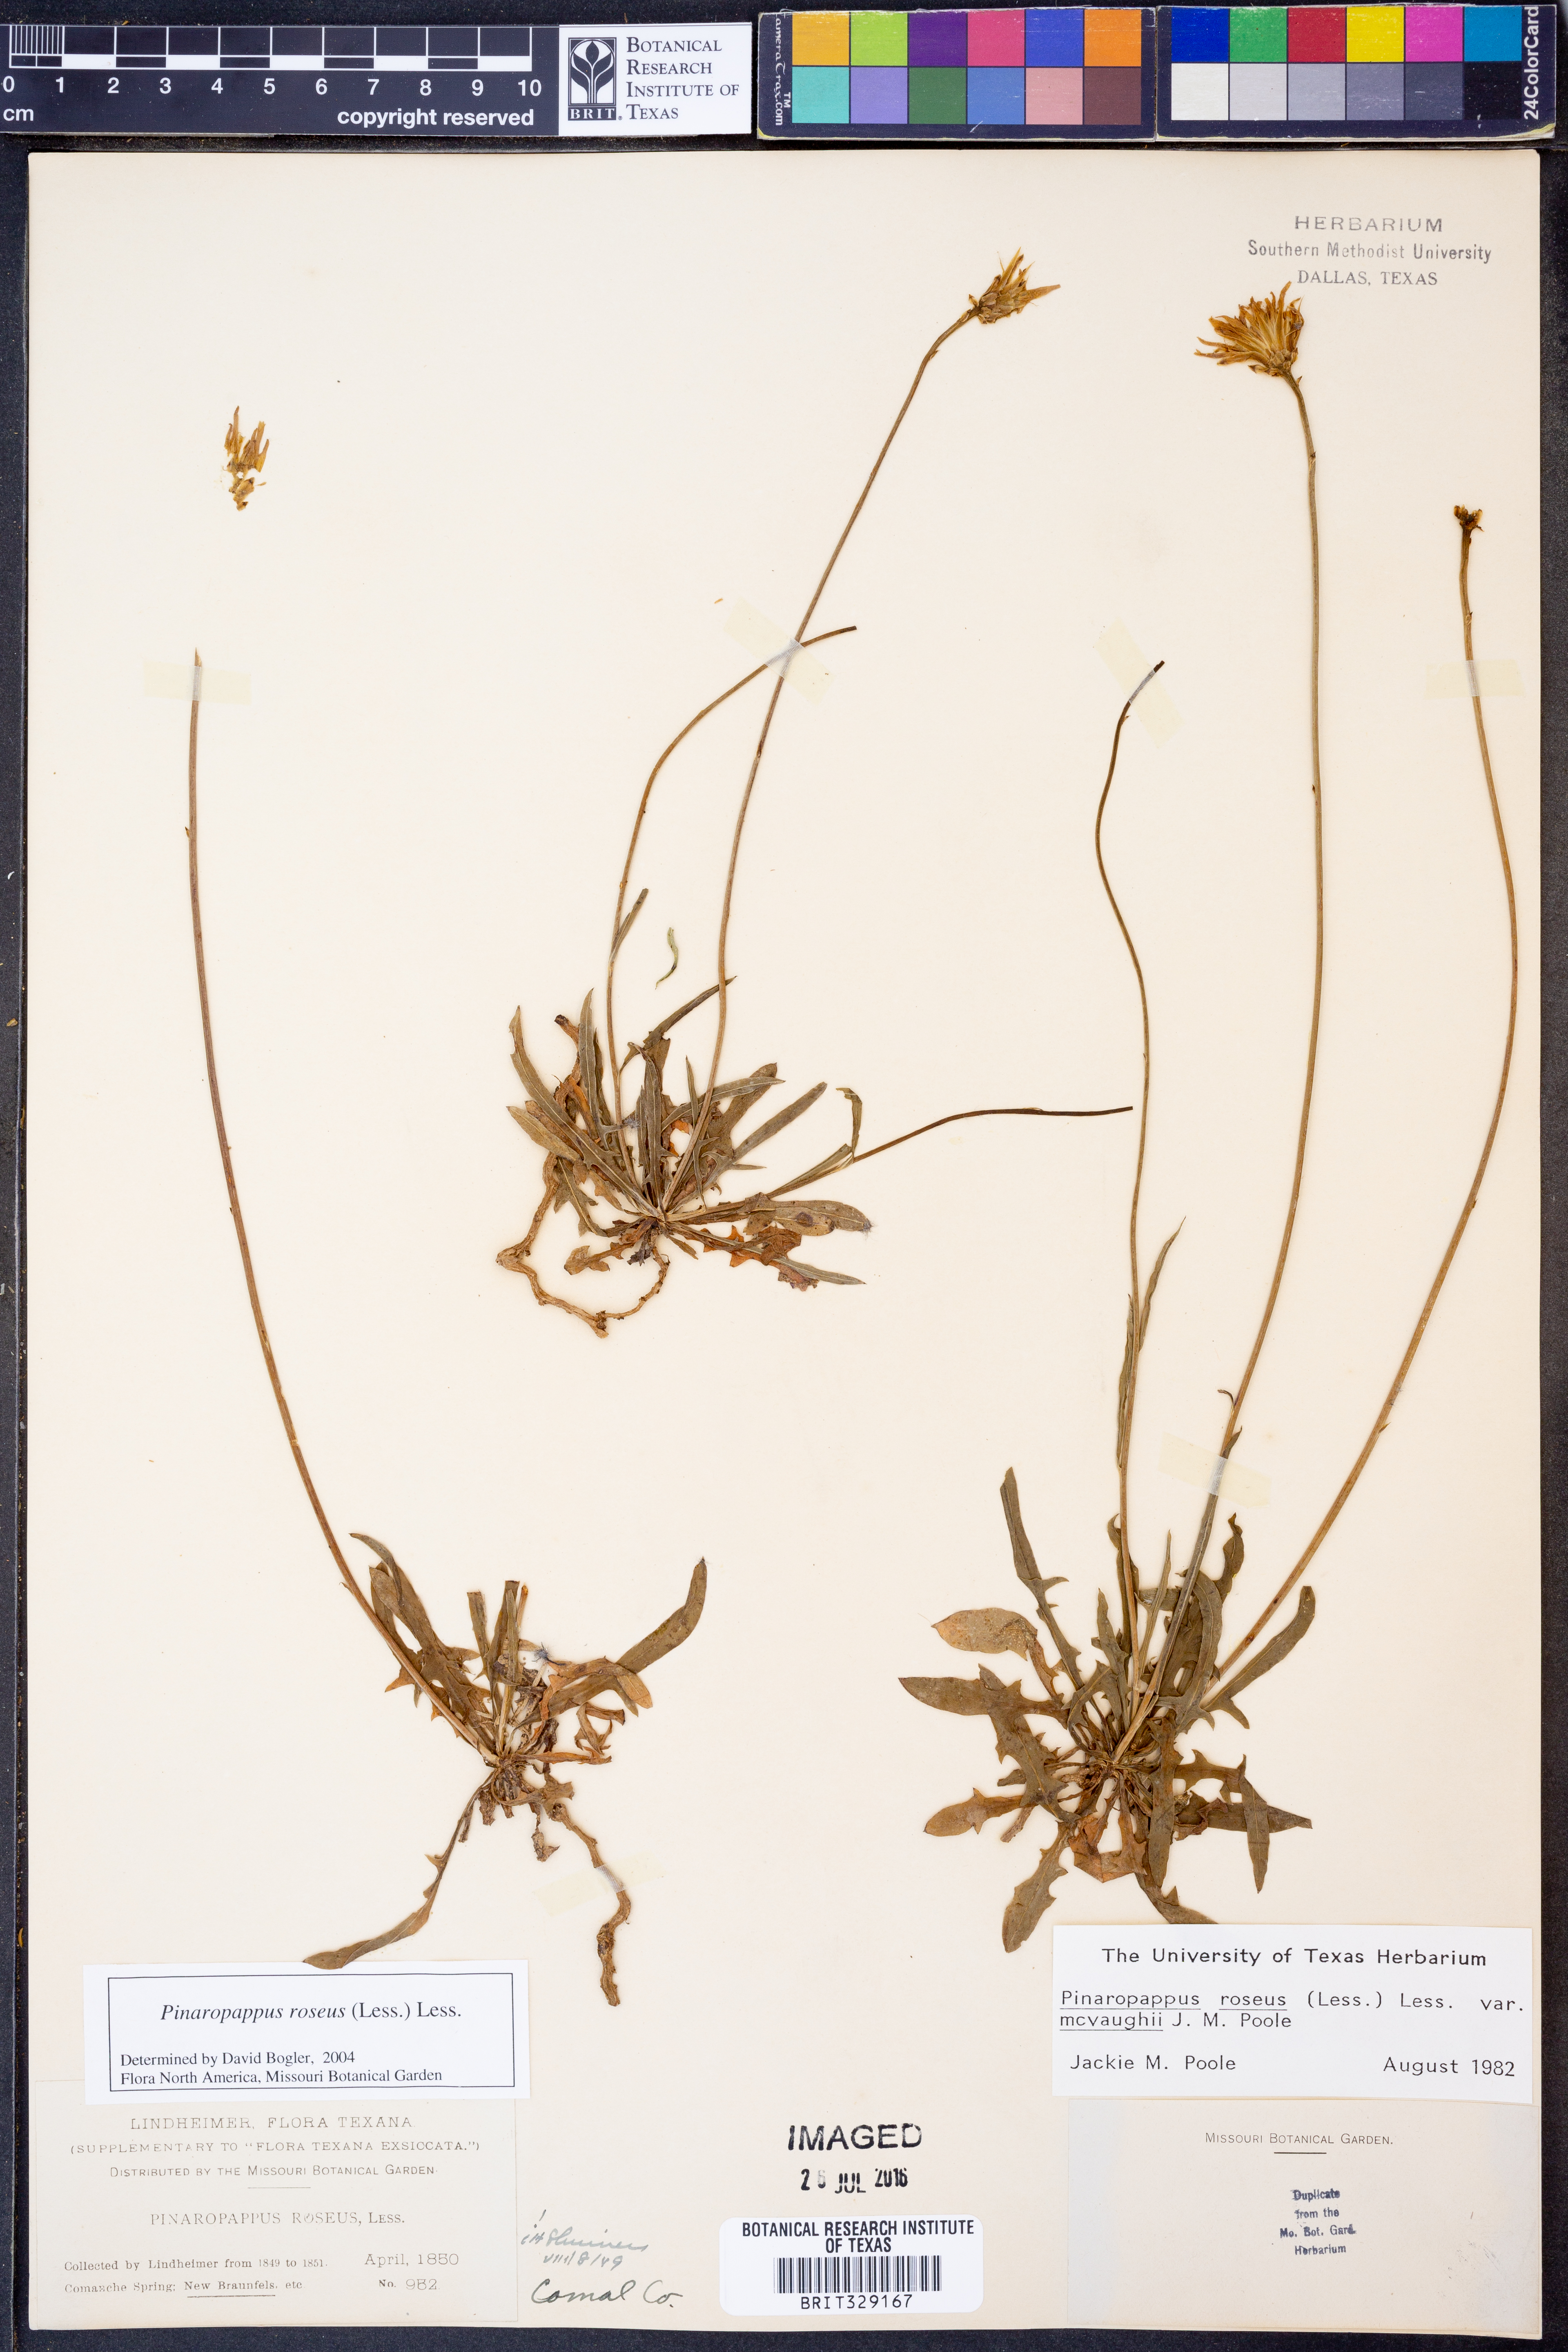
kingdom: Plantae
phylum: Tracheophyta
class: Magnoliopsida
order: Asterales
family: Asteraceae
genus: Pinaropappus
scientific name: Pinaropappus roseus
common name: Rock-lettuce
